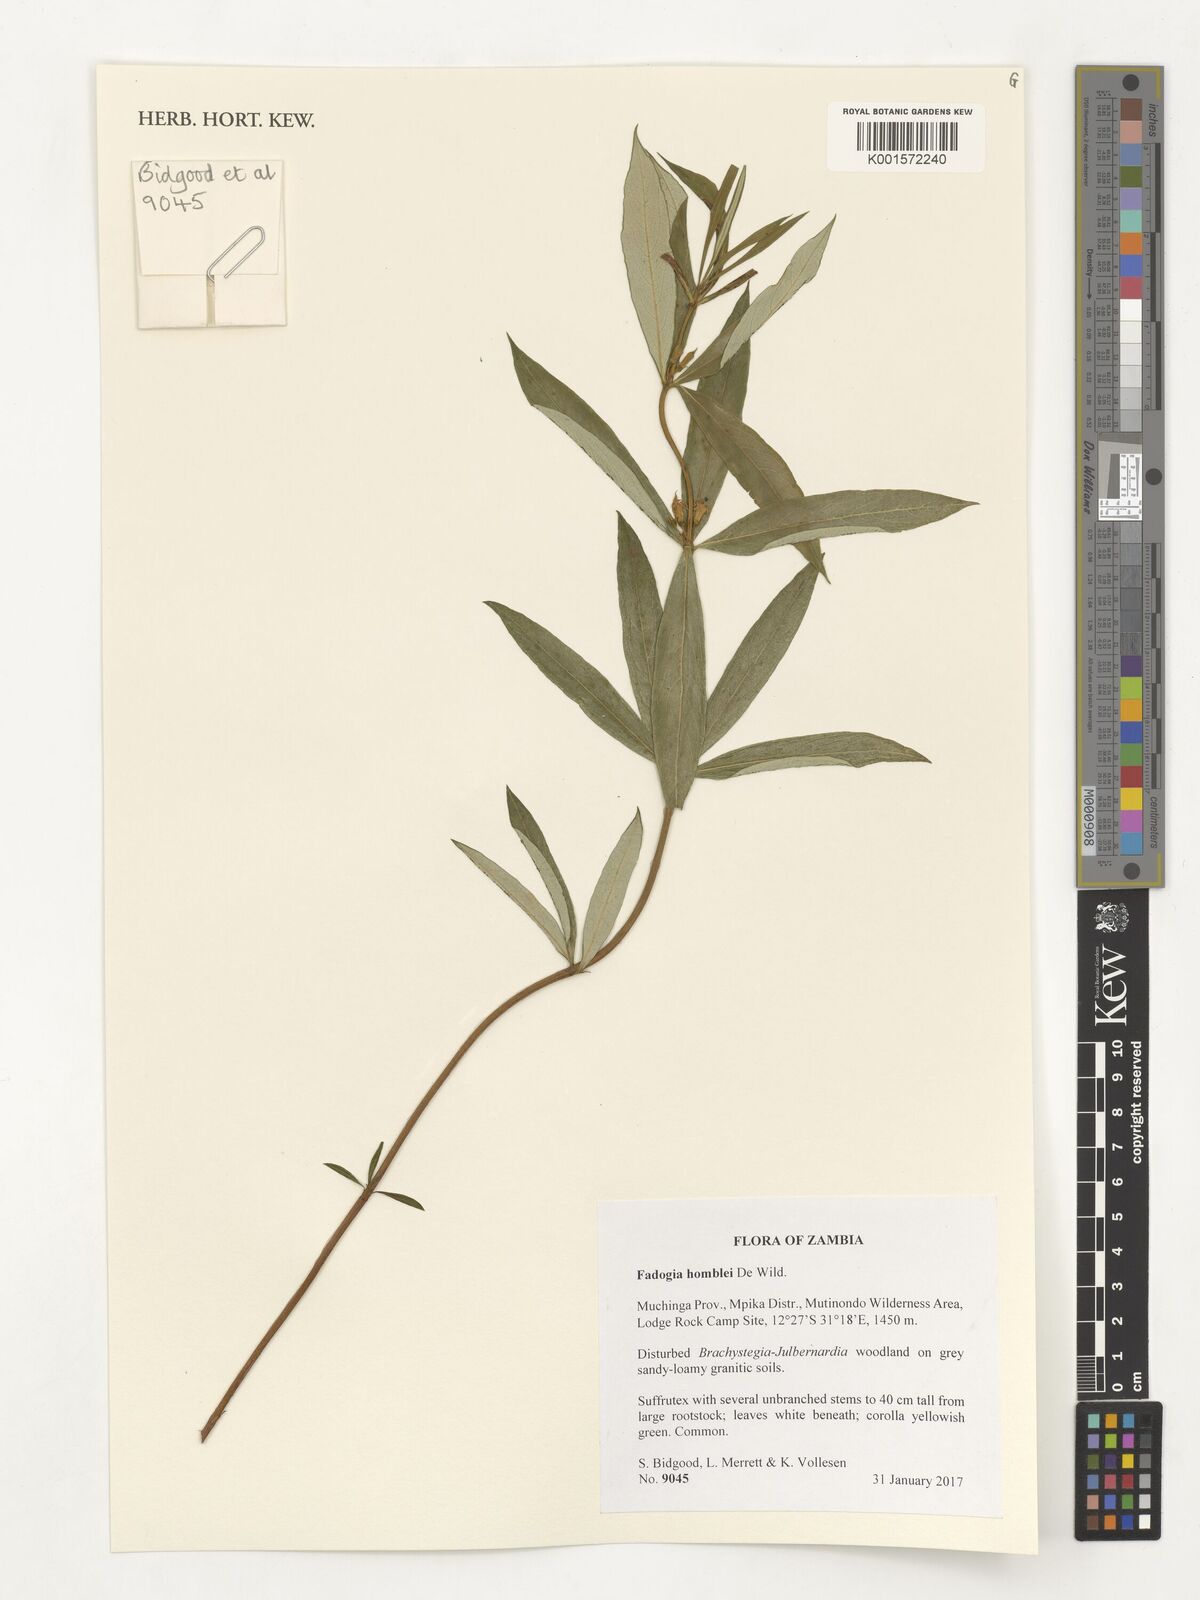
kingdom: Plantae
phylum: Tracheophyta
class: Magnoliopsida
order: Gentianales
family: Rubiaceae
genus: Fadogia
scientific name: Fadogia homblei
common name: Wild date
